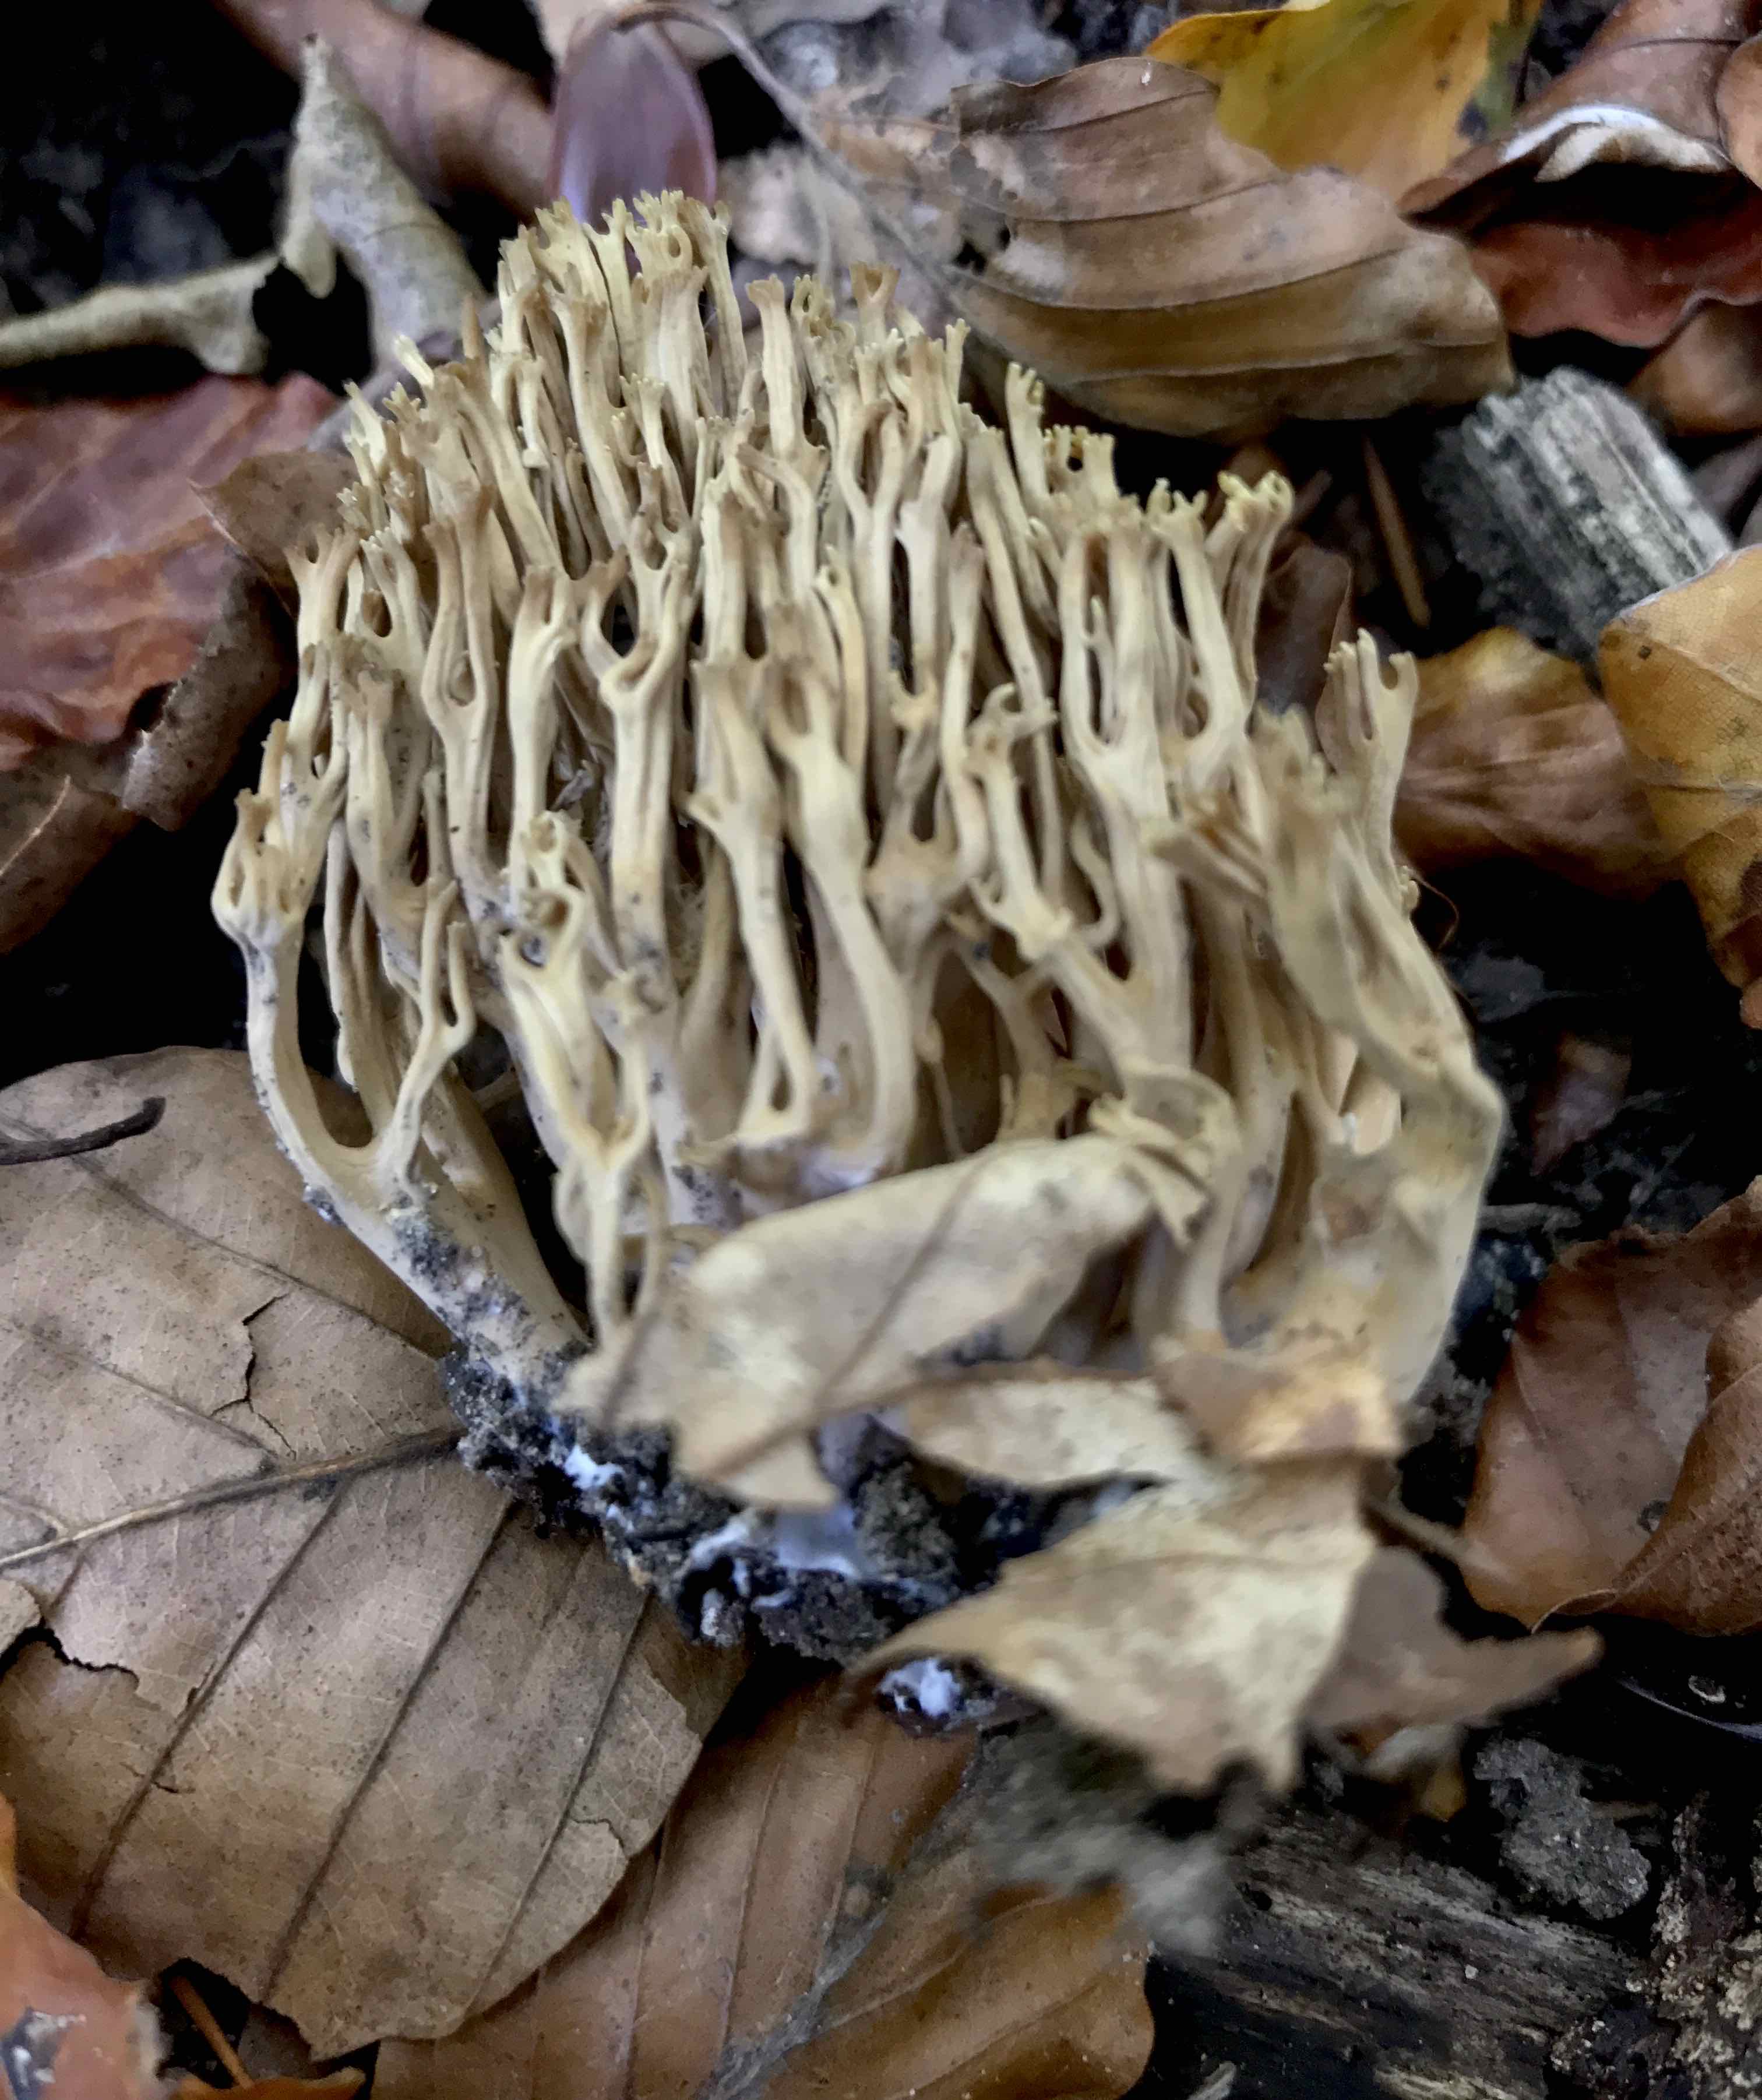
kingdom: Fungi
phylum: Basidiomycota
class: Agaricomycetes
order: Gomphales
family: Gomphaceae
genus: Ramaria
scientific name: Ramaria stricta
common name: rank koralsvamp
